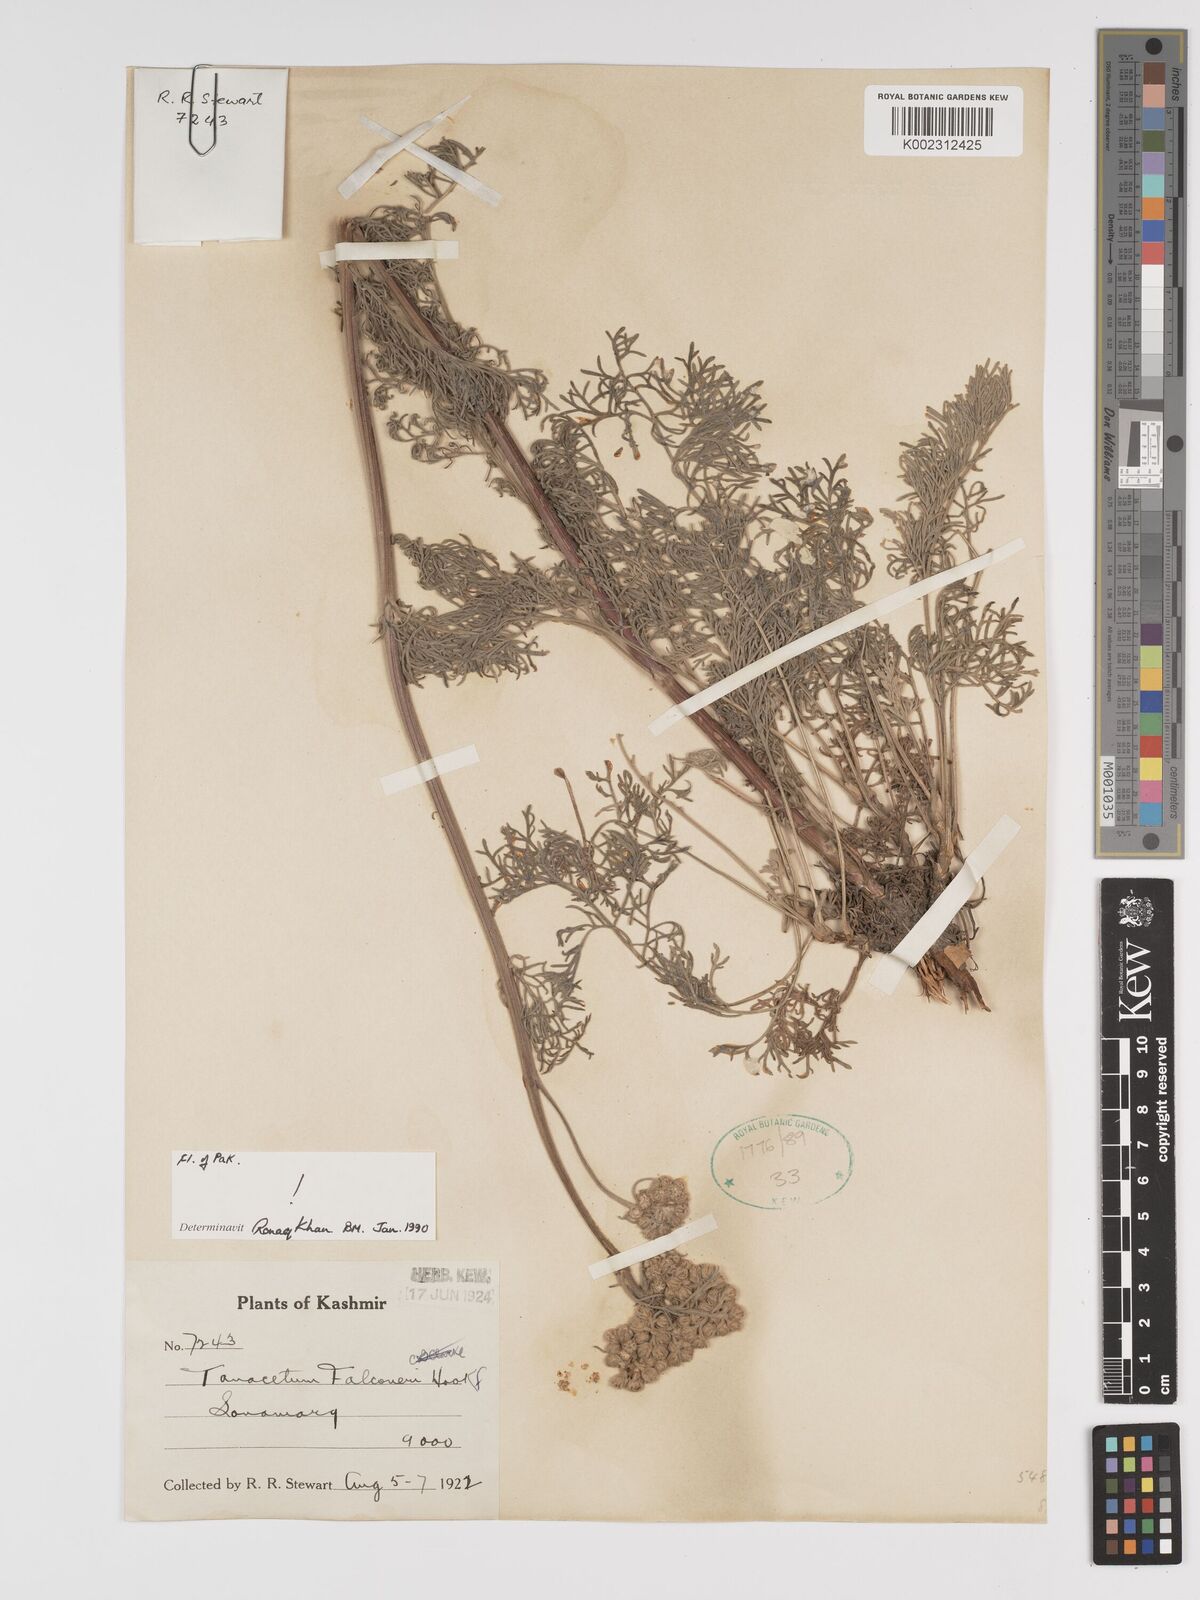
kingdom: Plantae
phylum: Tracheophyta
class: Magnoliopsida
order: Asterales
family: Asteraceae
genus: Tanacetum
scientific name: Tanacetum falconeri
